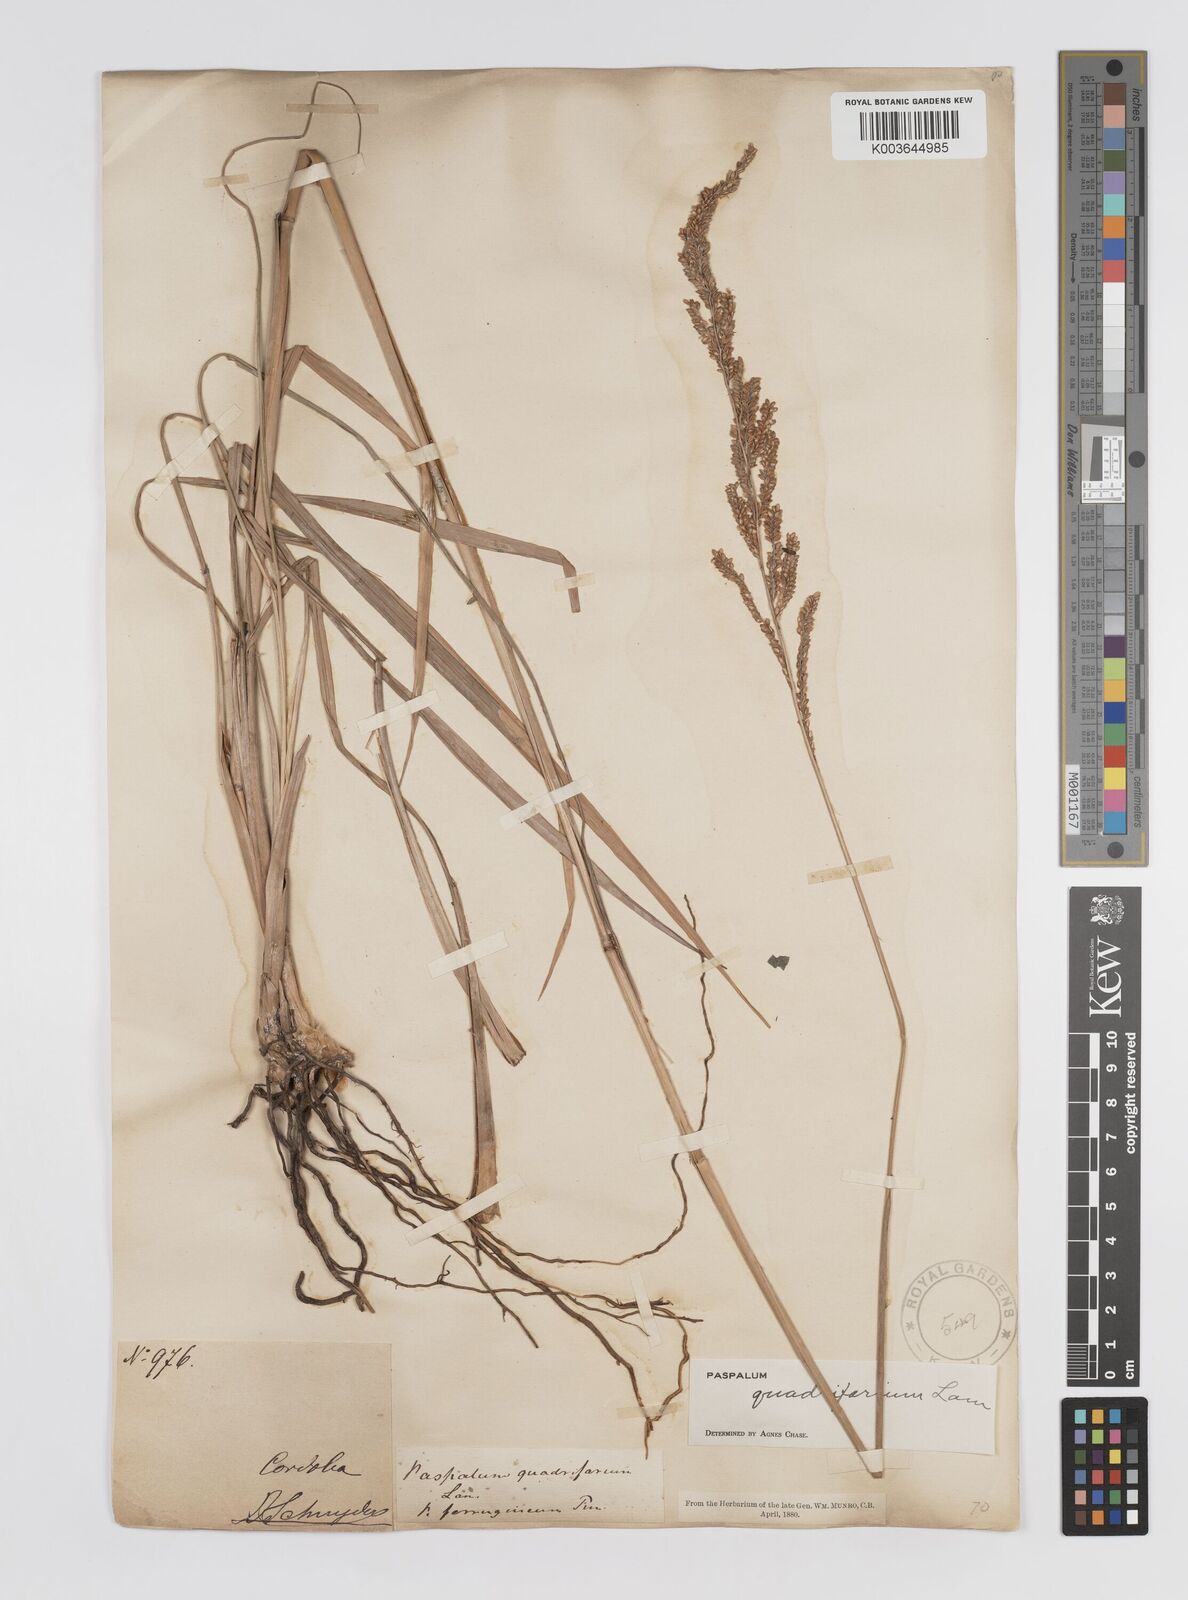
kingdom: Plantae
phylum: Tracheophyta
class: Liliopsida
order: Poales
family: Poaceae
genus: Paspalum
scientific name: Paspalum quadrifarium
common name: Tussock paspalum
